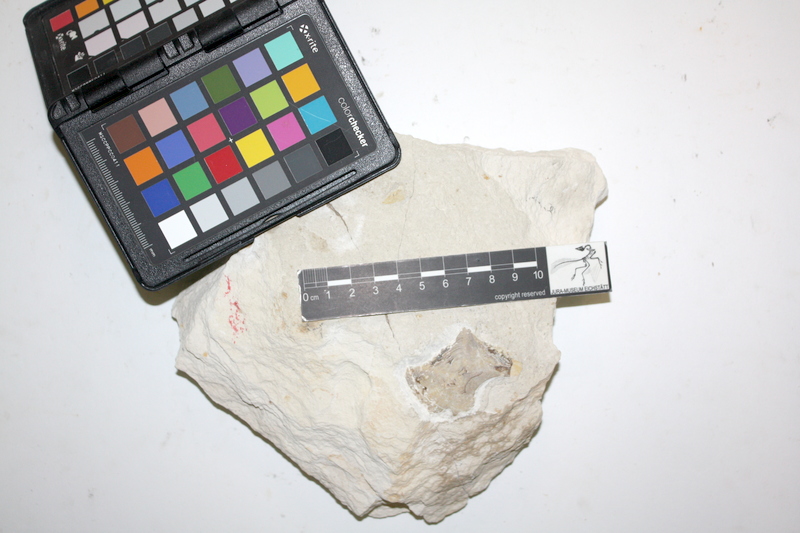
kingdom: Animalia
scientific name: Animalia
